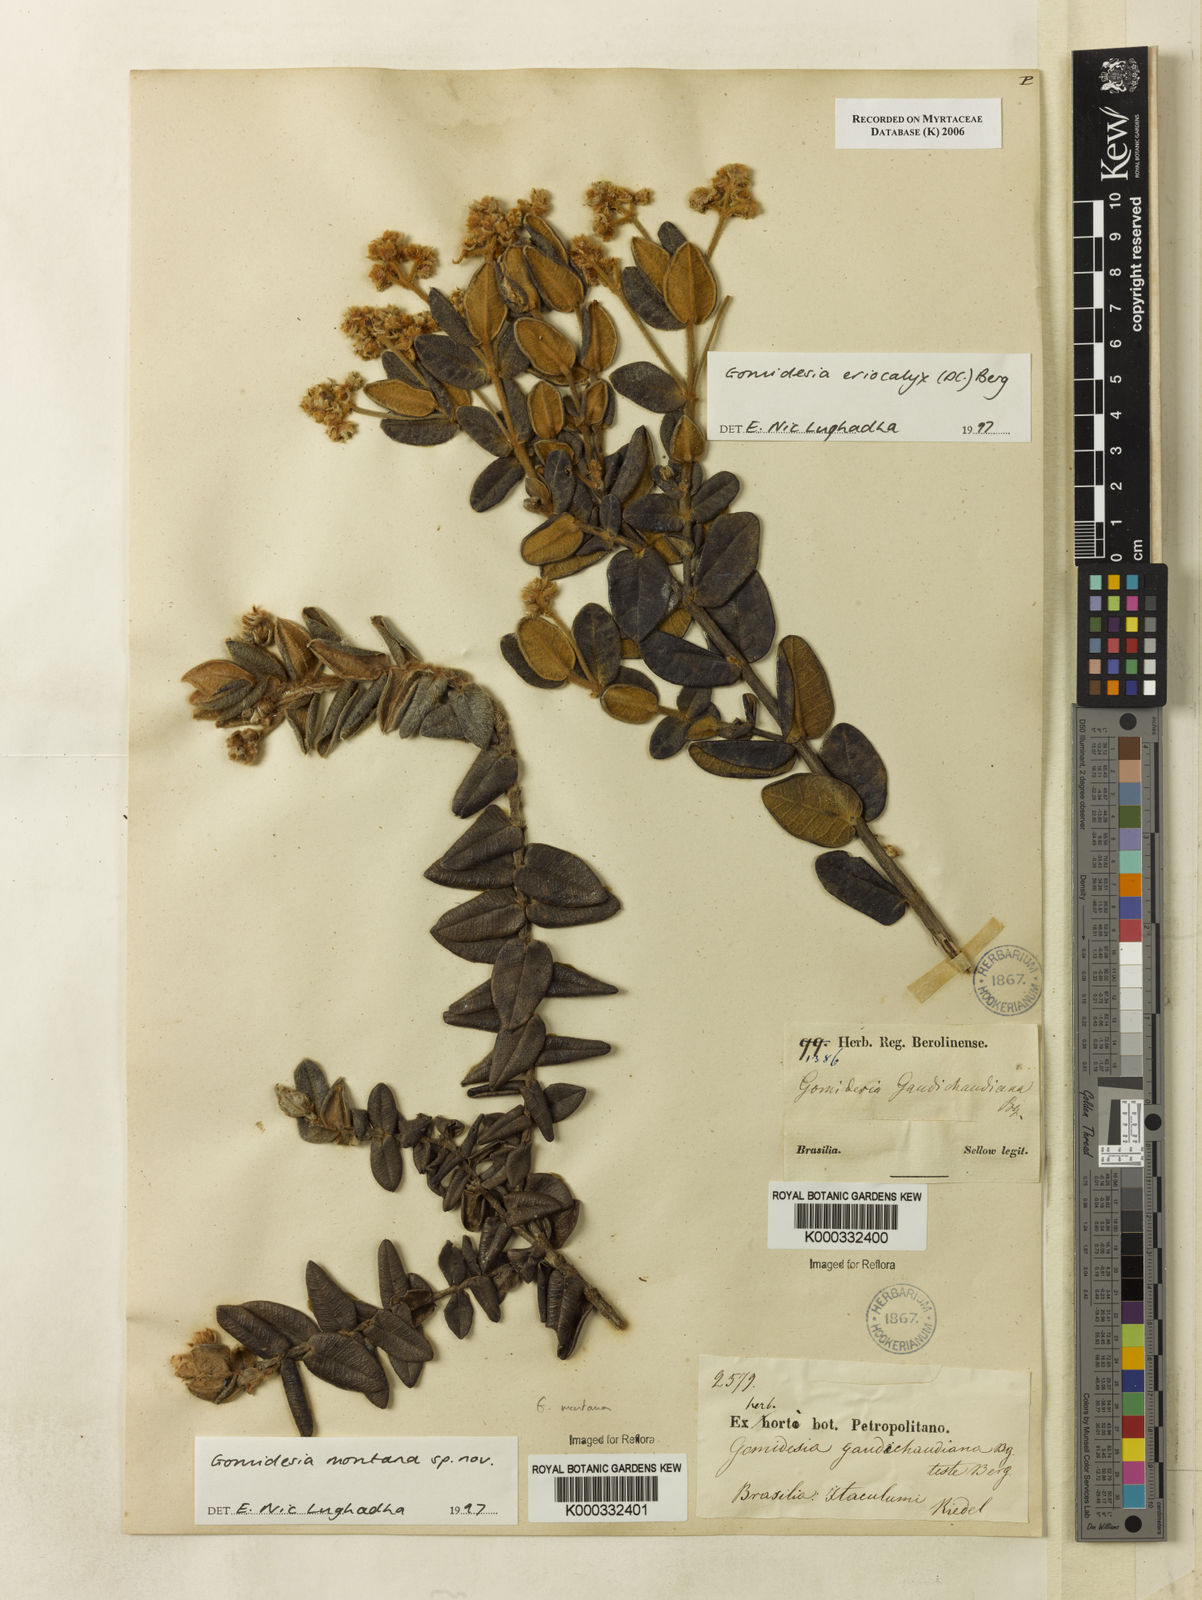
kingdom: Plantae
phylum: Tracheophyta
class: Magnoliopsida
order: Myrtales
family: Myrtaceae
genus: Myrcia
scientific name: Myrcia eriocalyx
